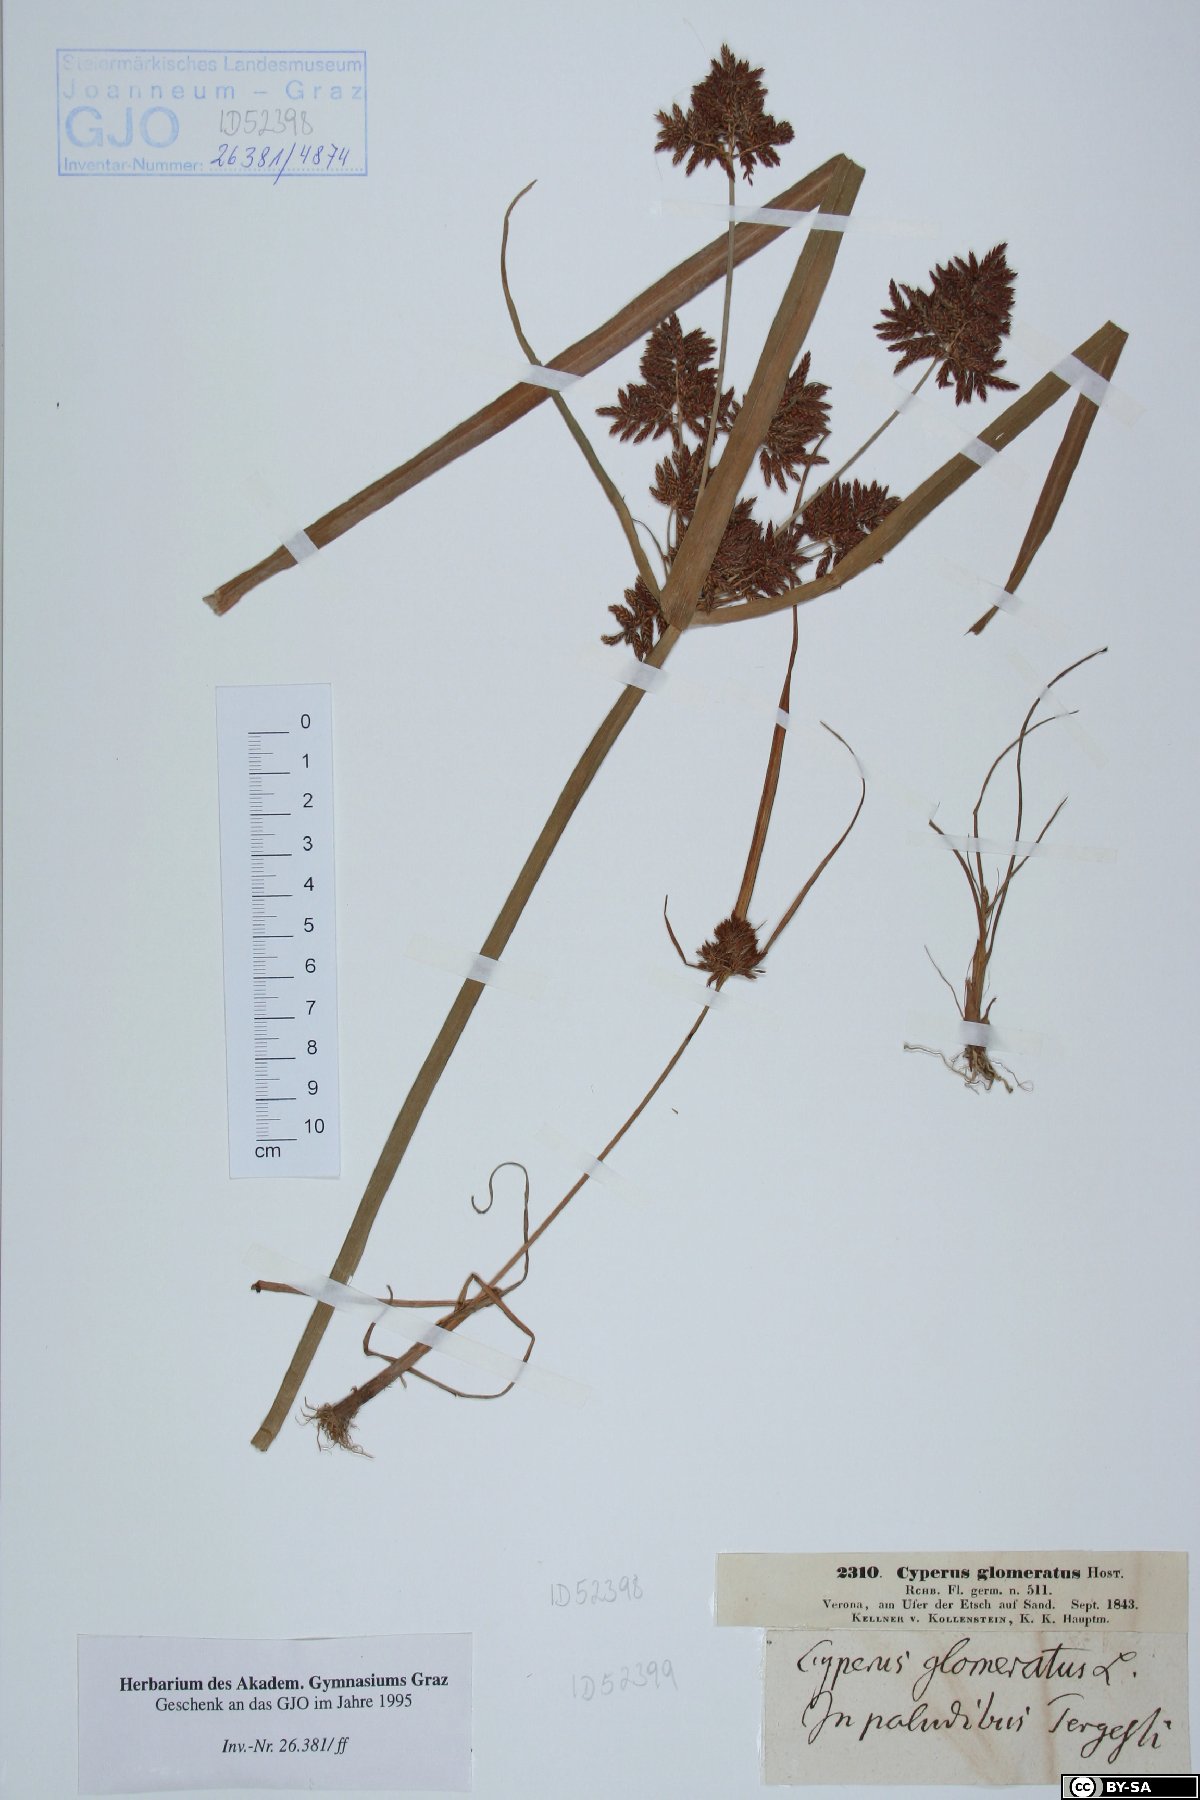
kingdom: Plantae
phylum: Tracheophyta
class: Liliopsida
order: Poales
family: Cyperaceae
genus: Cyperus
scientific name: Cyperus glomeratus
